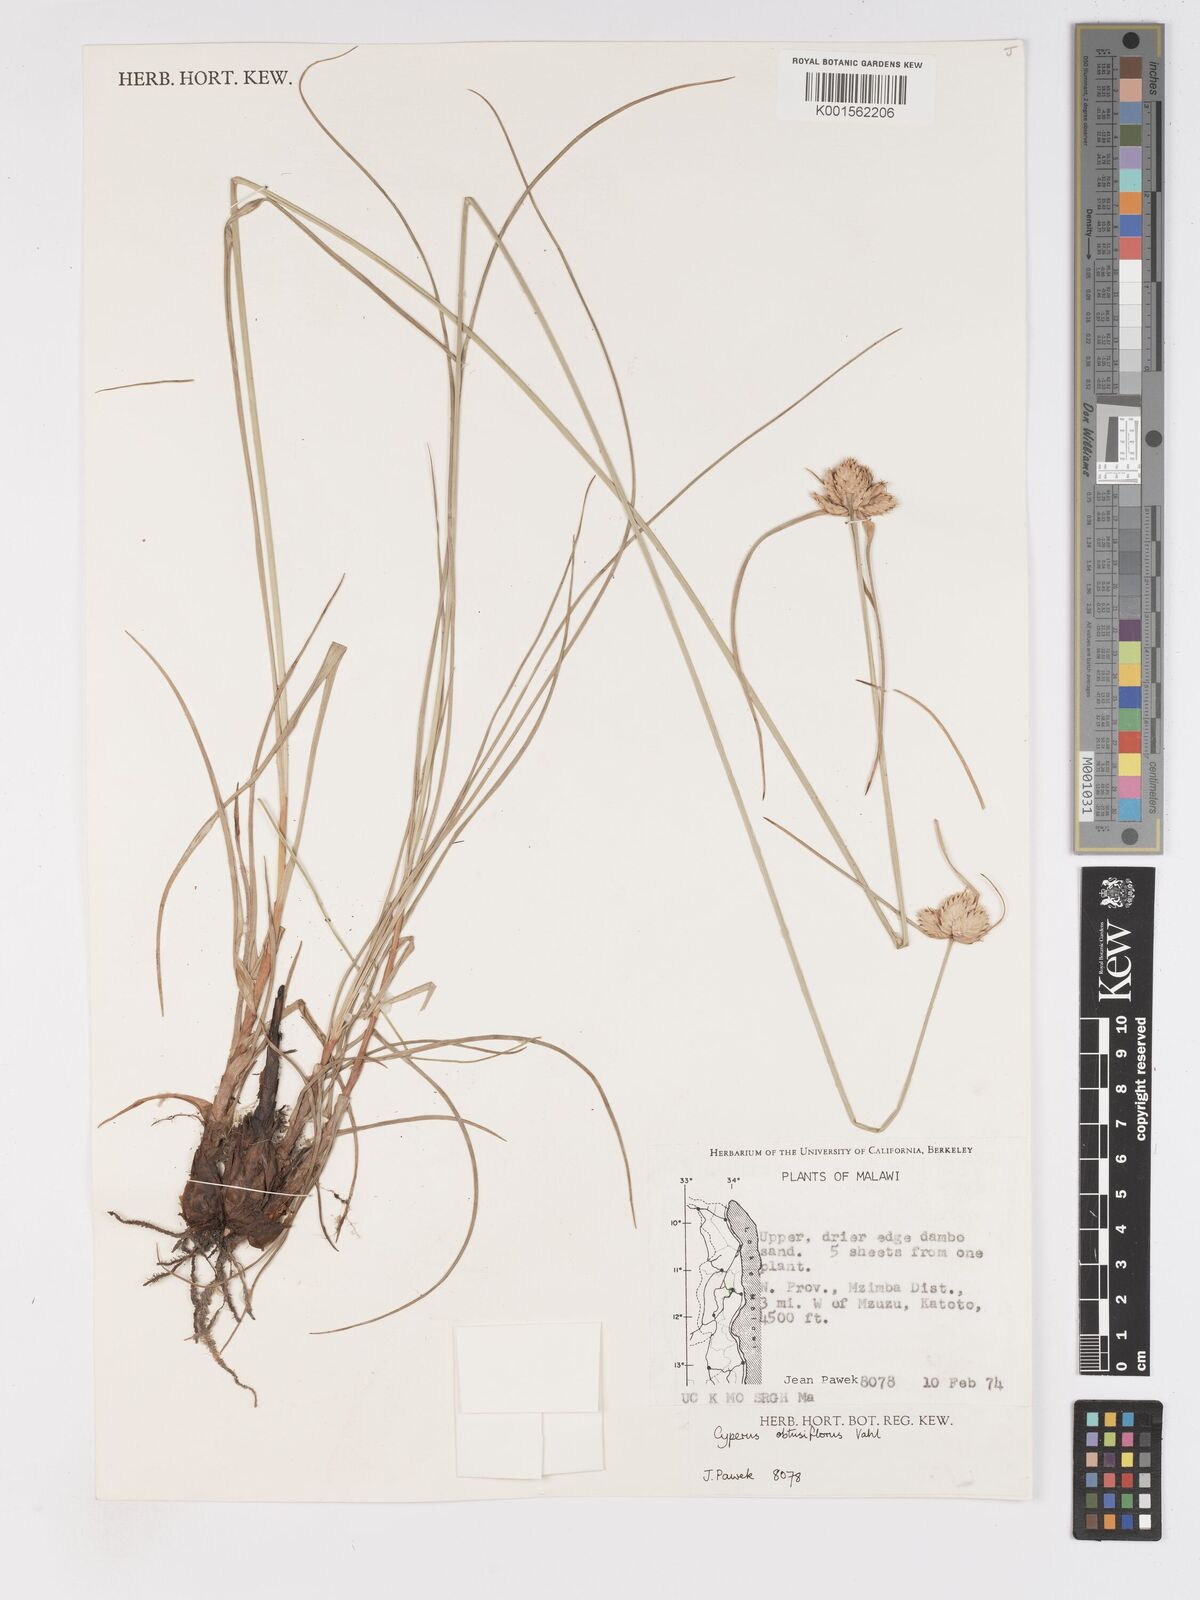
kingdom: Plantae
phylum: Tracheophyta
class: Liliopsida
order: Poales
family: Cyperaceae
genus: Cyperus
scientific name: Cyperus niveus
